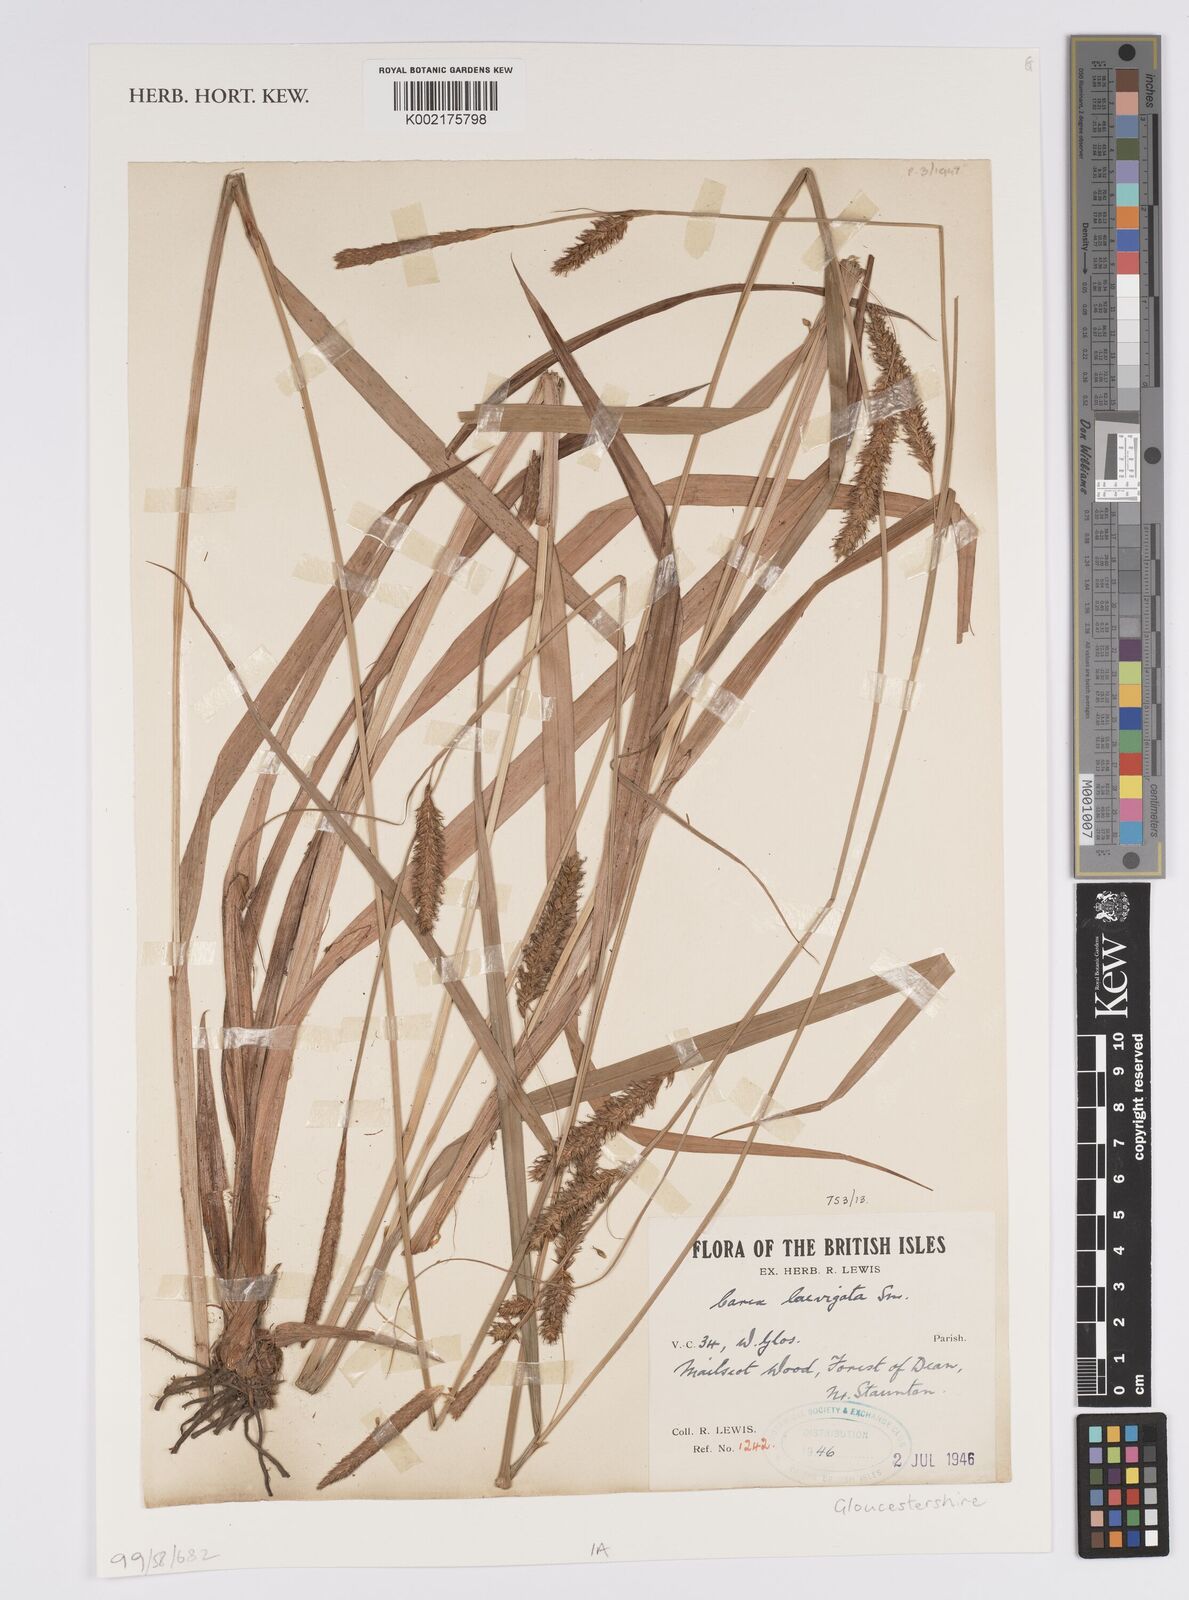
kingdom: Plantae
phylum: Tracheophyta
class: Liliopsida
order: Poales
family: Cyperaceae
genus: Carex
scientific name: Carex laevigata
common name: Smooth-stalked sedge
